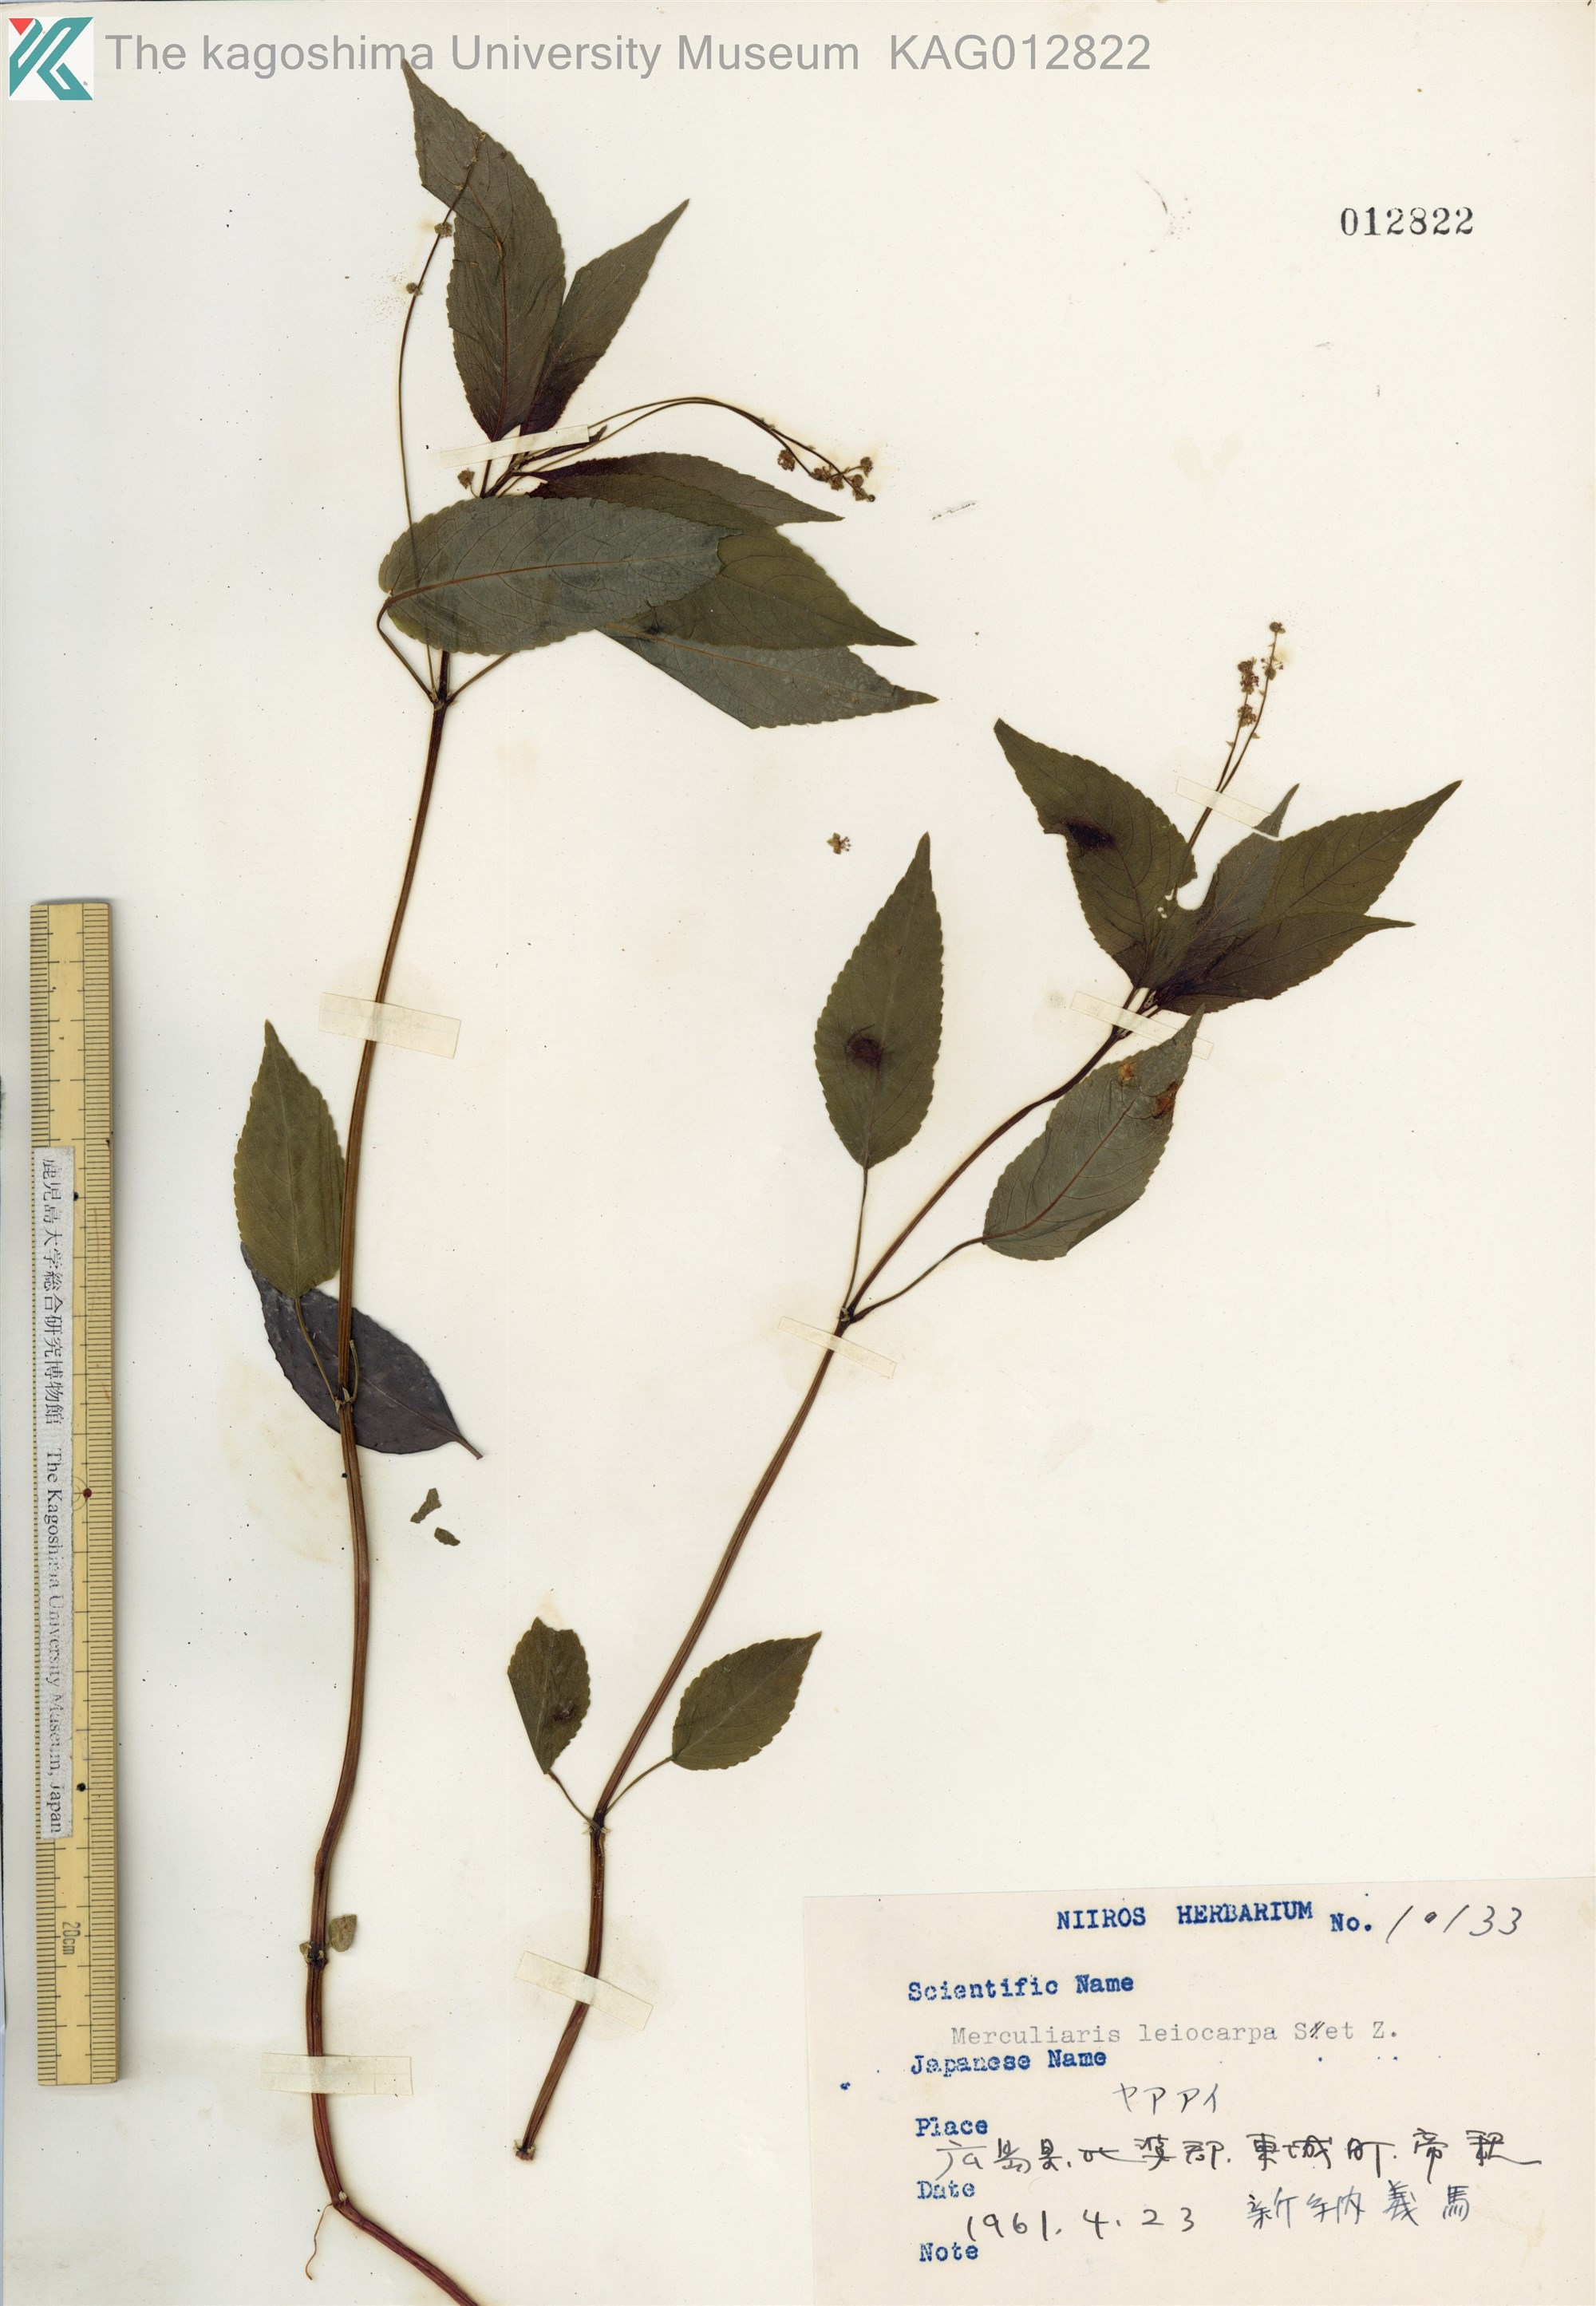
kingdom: Plantae
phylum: Tracheophyta
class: Magnoliopsida
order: Malpighiales
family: Euphorbiaceae
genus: Mercurialis
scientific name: Mercurialis leiocarpa
